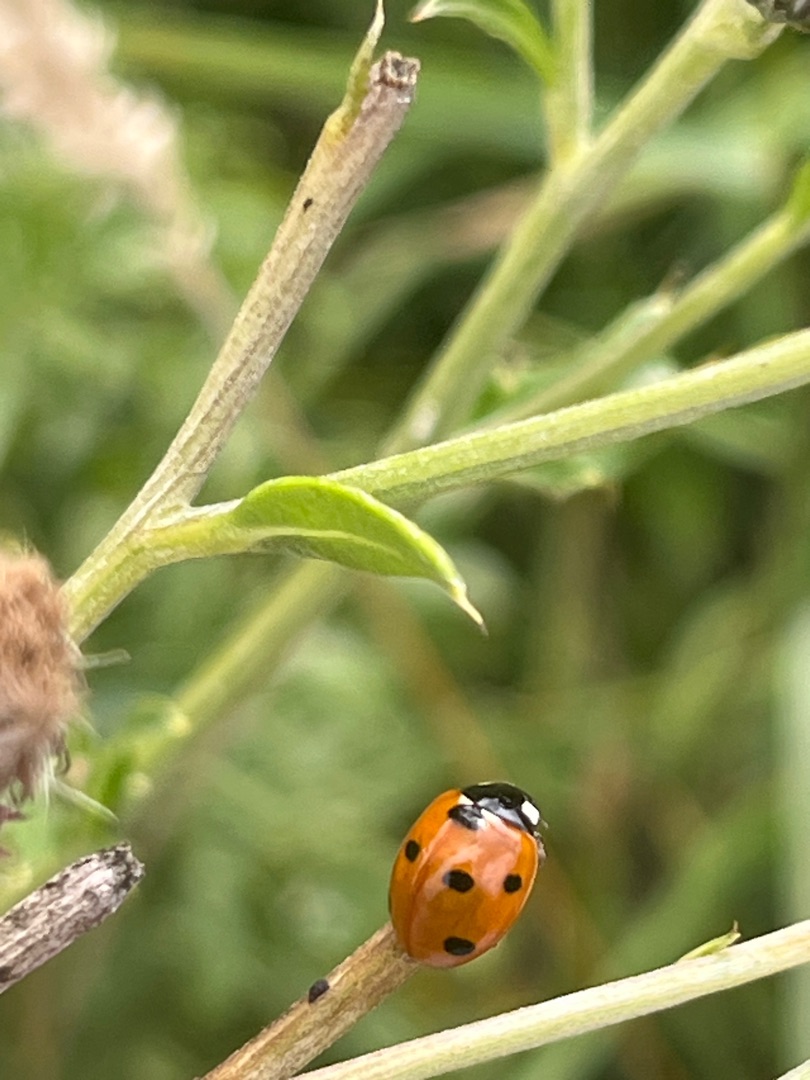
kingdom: Animalia
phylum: Arthropoda
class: Insecta
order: Coleoptera
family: Coccinellidae
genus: Coccinella
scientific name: Coccinella septempunctata
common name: Syvplettet mariehøne
